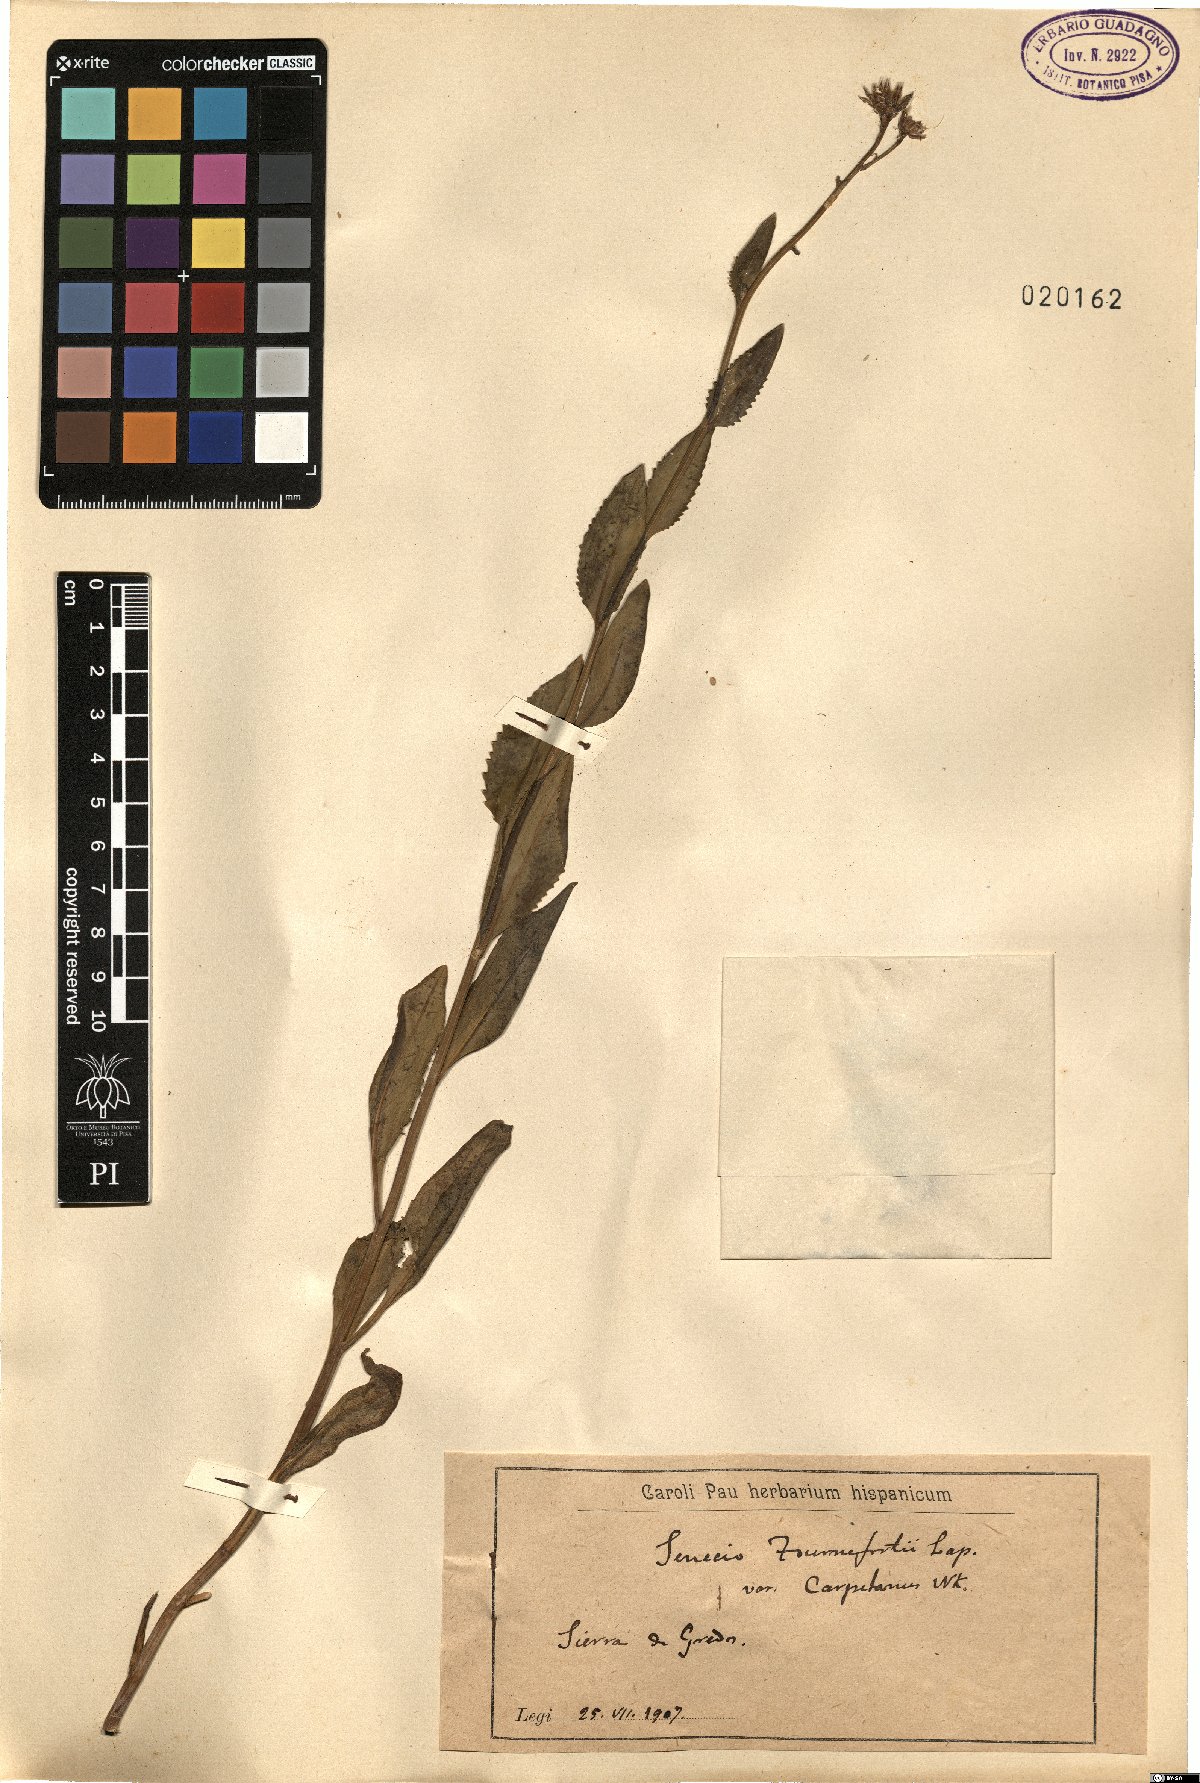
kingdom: Plantae
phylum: Tracheophyta
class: Magnoliopsida
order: Asterales
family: Asteraceae
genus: Senecio
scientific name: Senecio pyrenaicus
